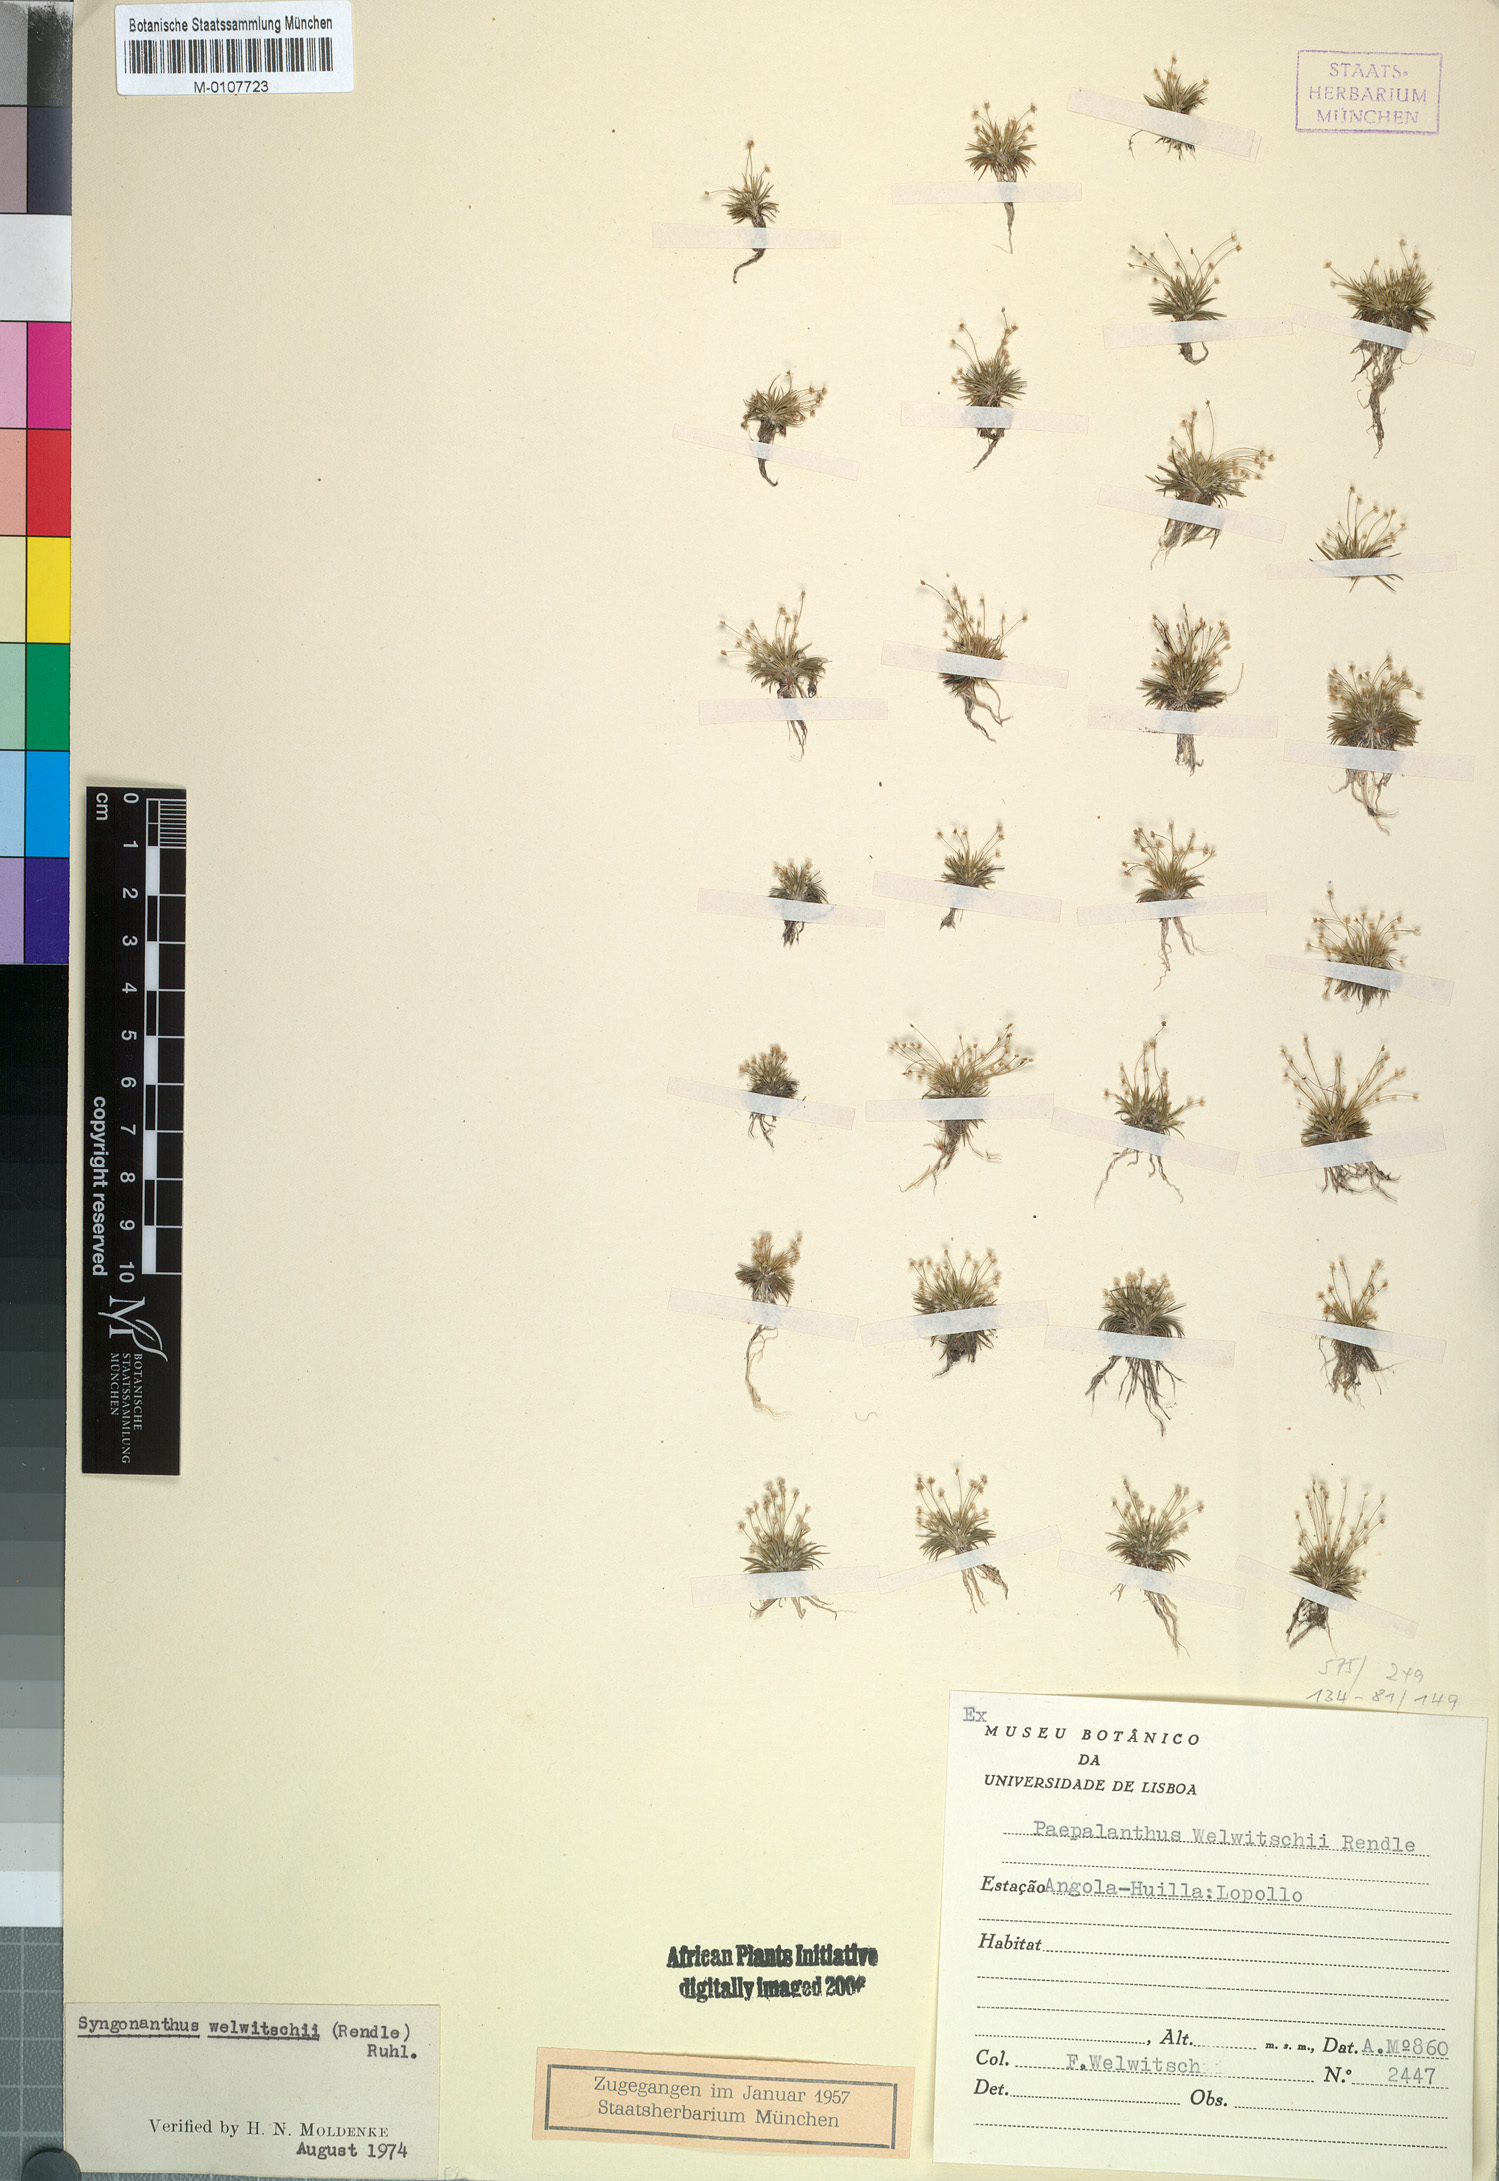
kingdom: Plantae
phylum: Tracheophyta
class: Liliopsida
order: Poales
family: Eriocaulaceae
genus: Syngonanthus
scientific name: Syngonanthus welwitschii
